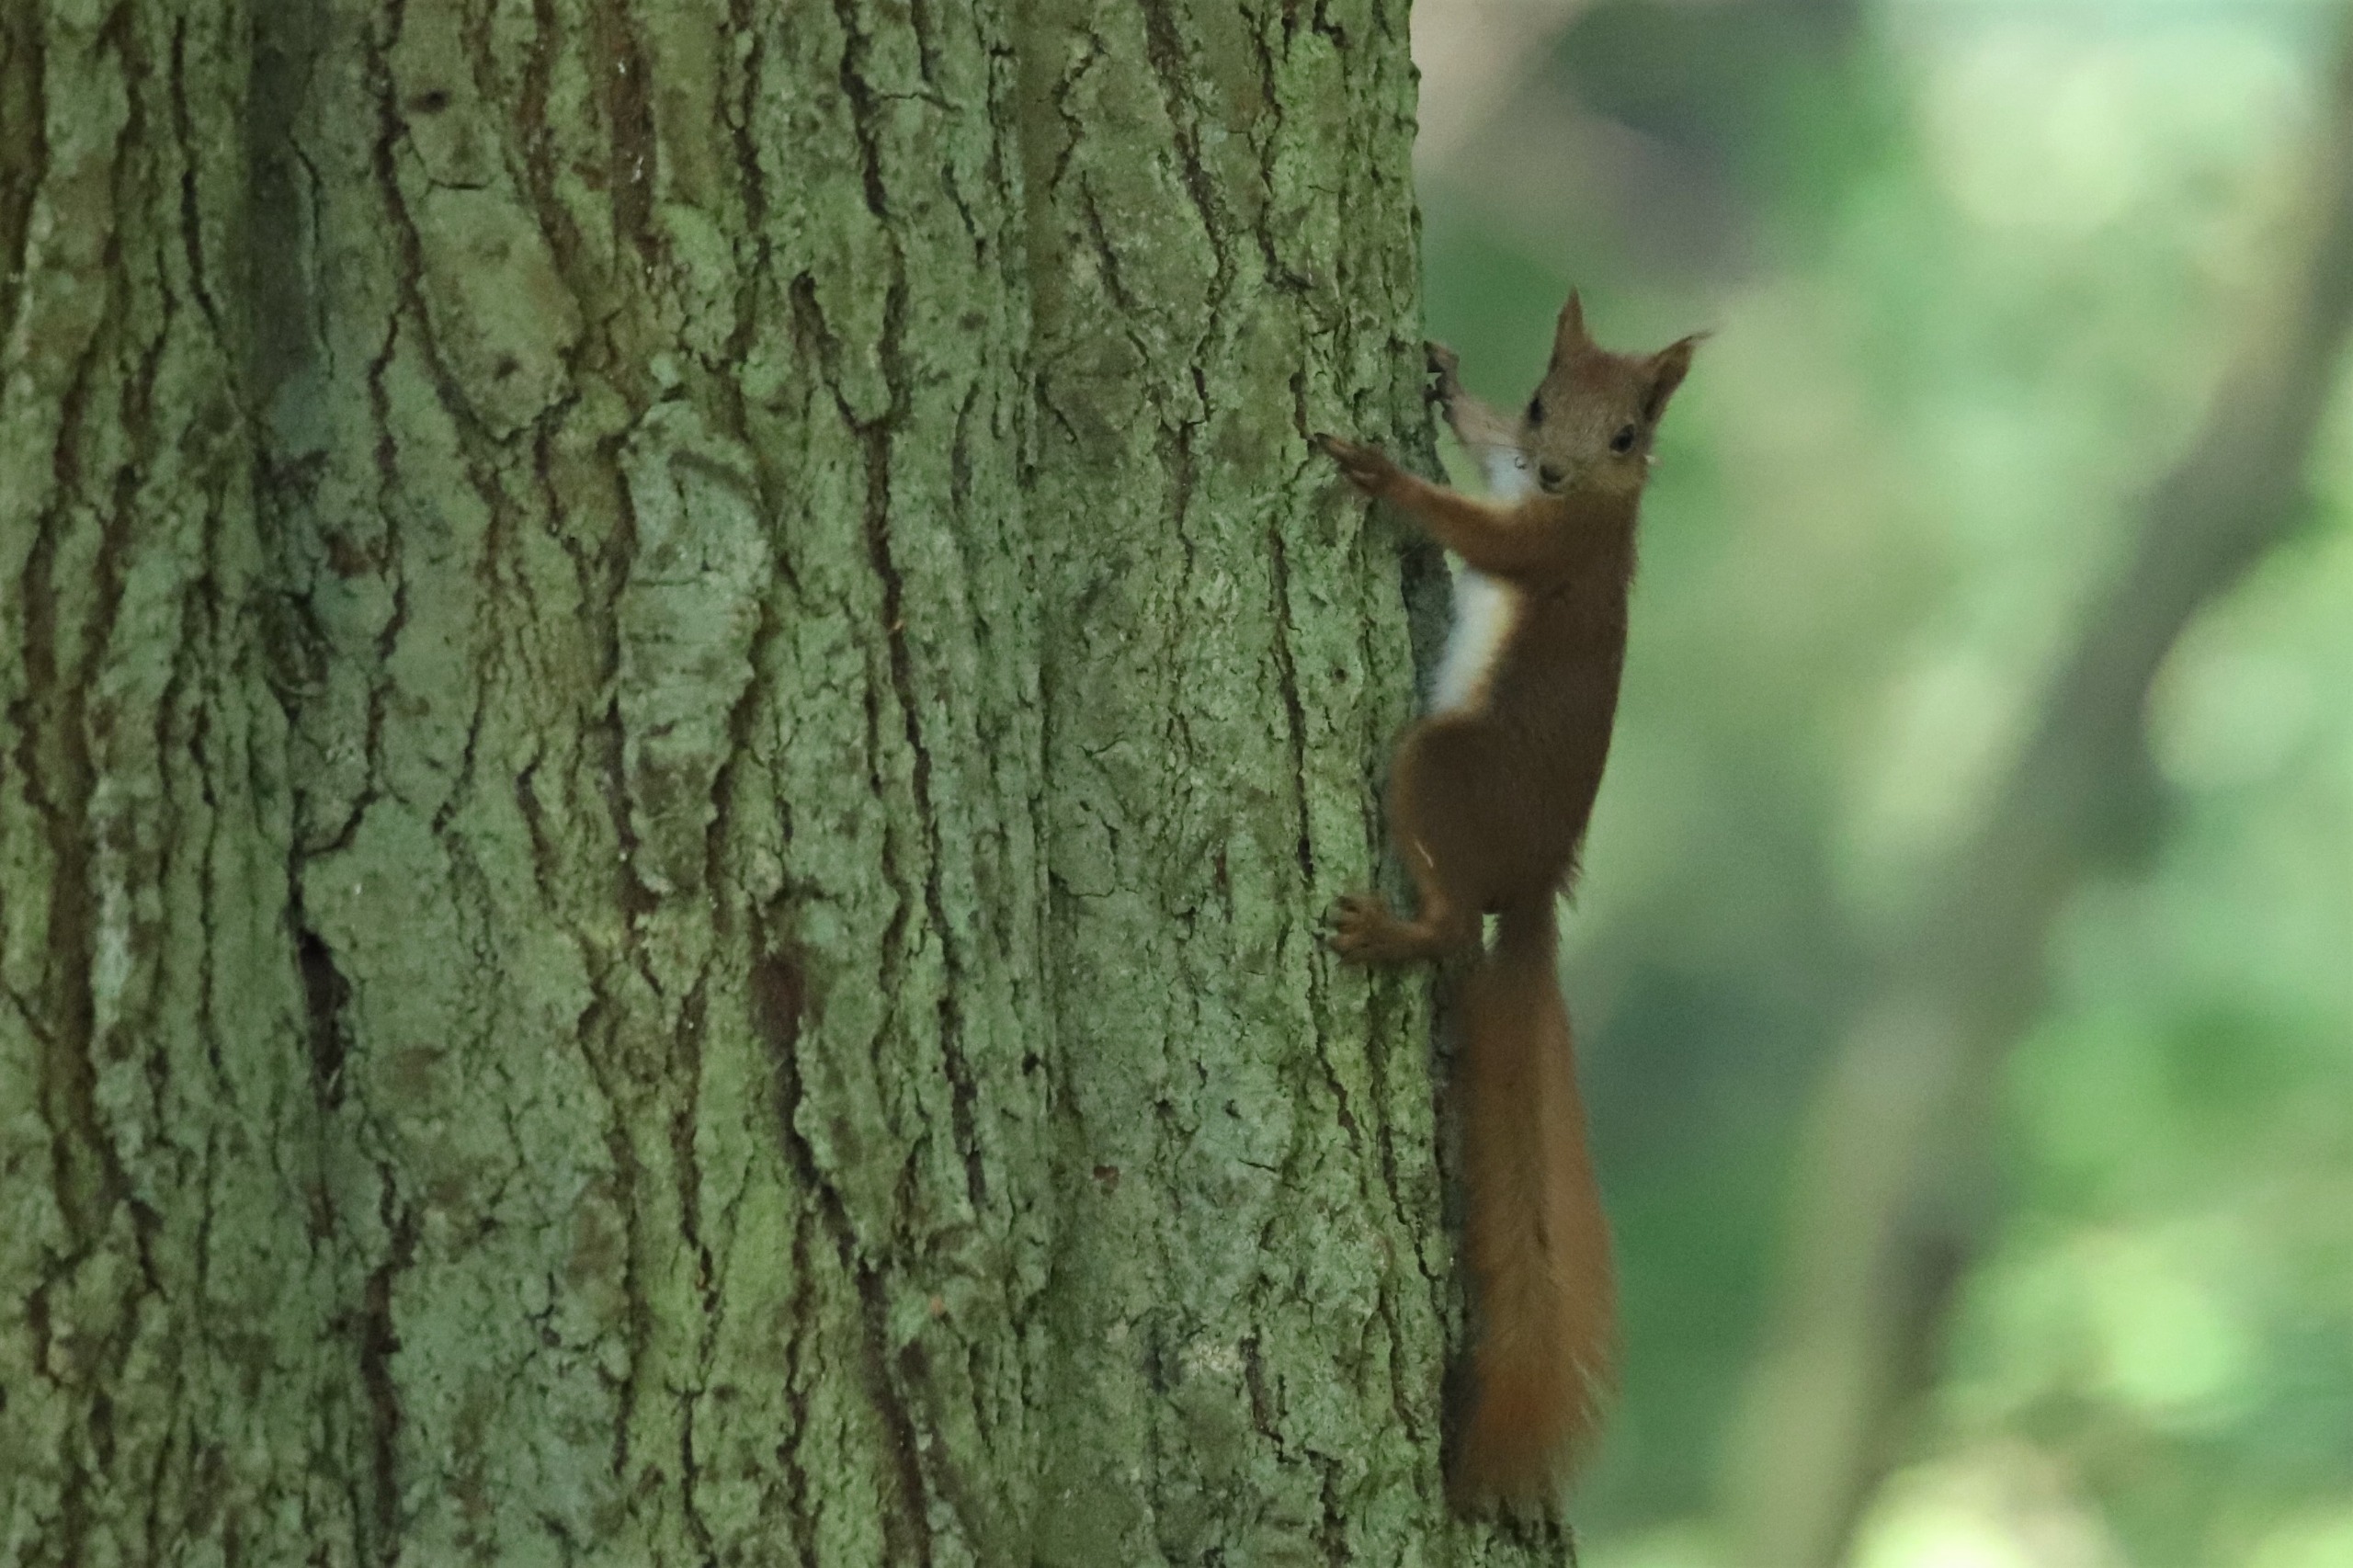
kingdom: Animalia
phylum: Chordata
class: Mammalia
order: Rodentia
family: Sciuridae
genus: Sciurus
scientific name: Sciurus vulgaris
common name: Egern
